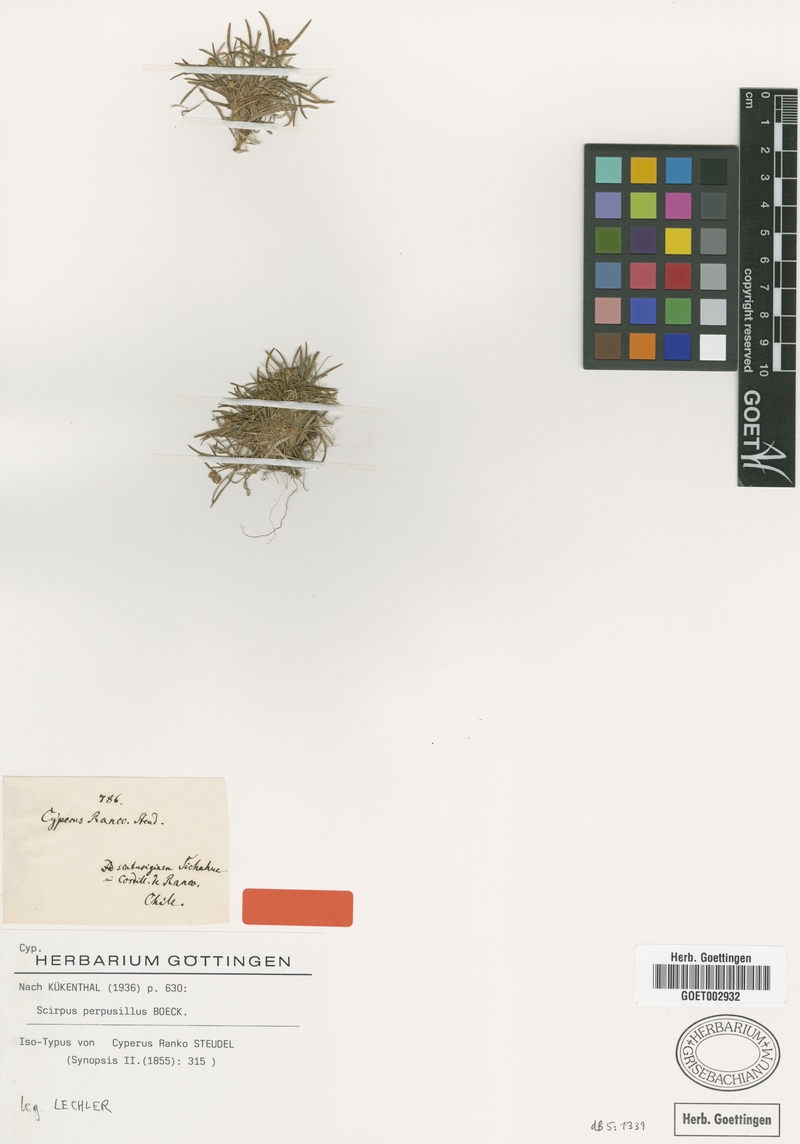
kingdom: Plantae
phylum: Tracheophyta
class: Liliopsida
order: Poales
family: Cyperaceae
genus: Isolepis
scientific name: Isolepis ranko
